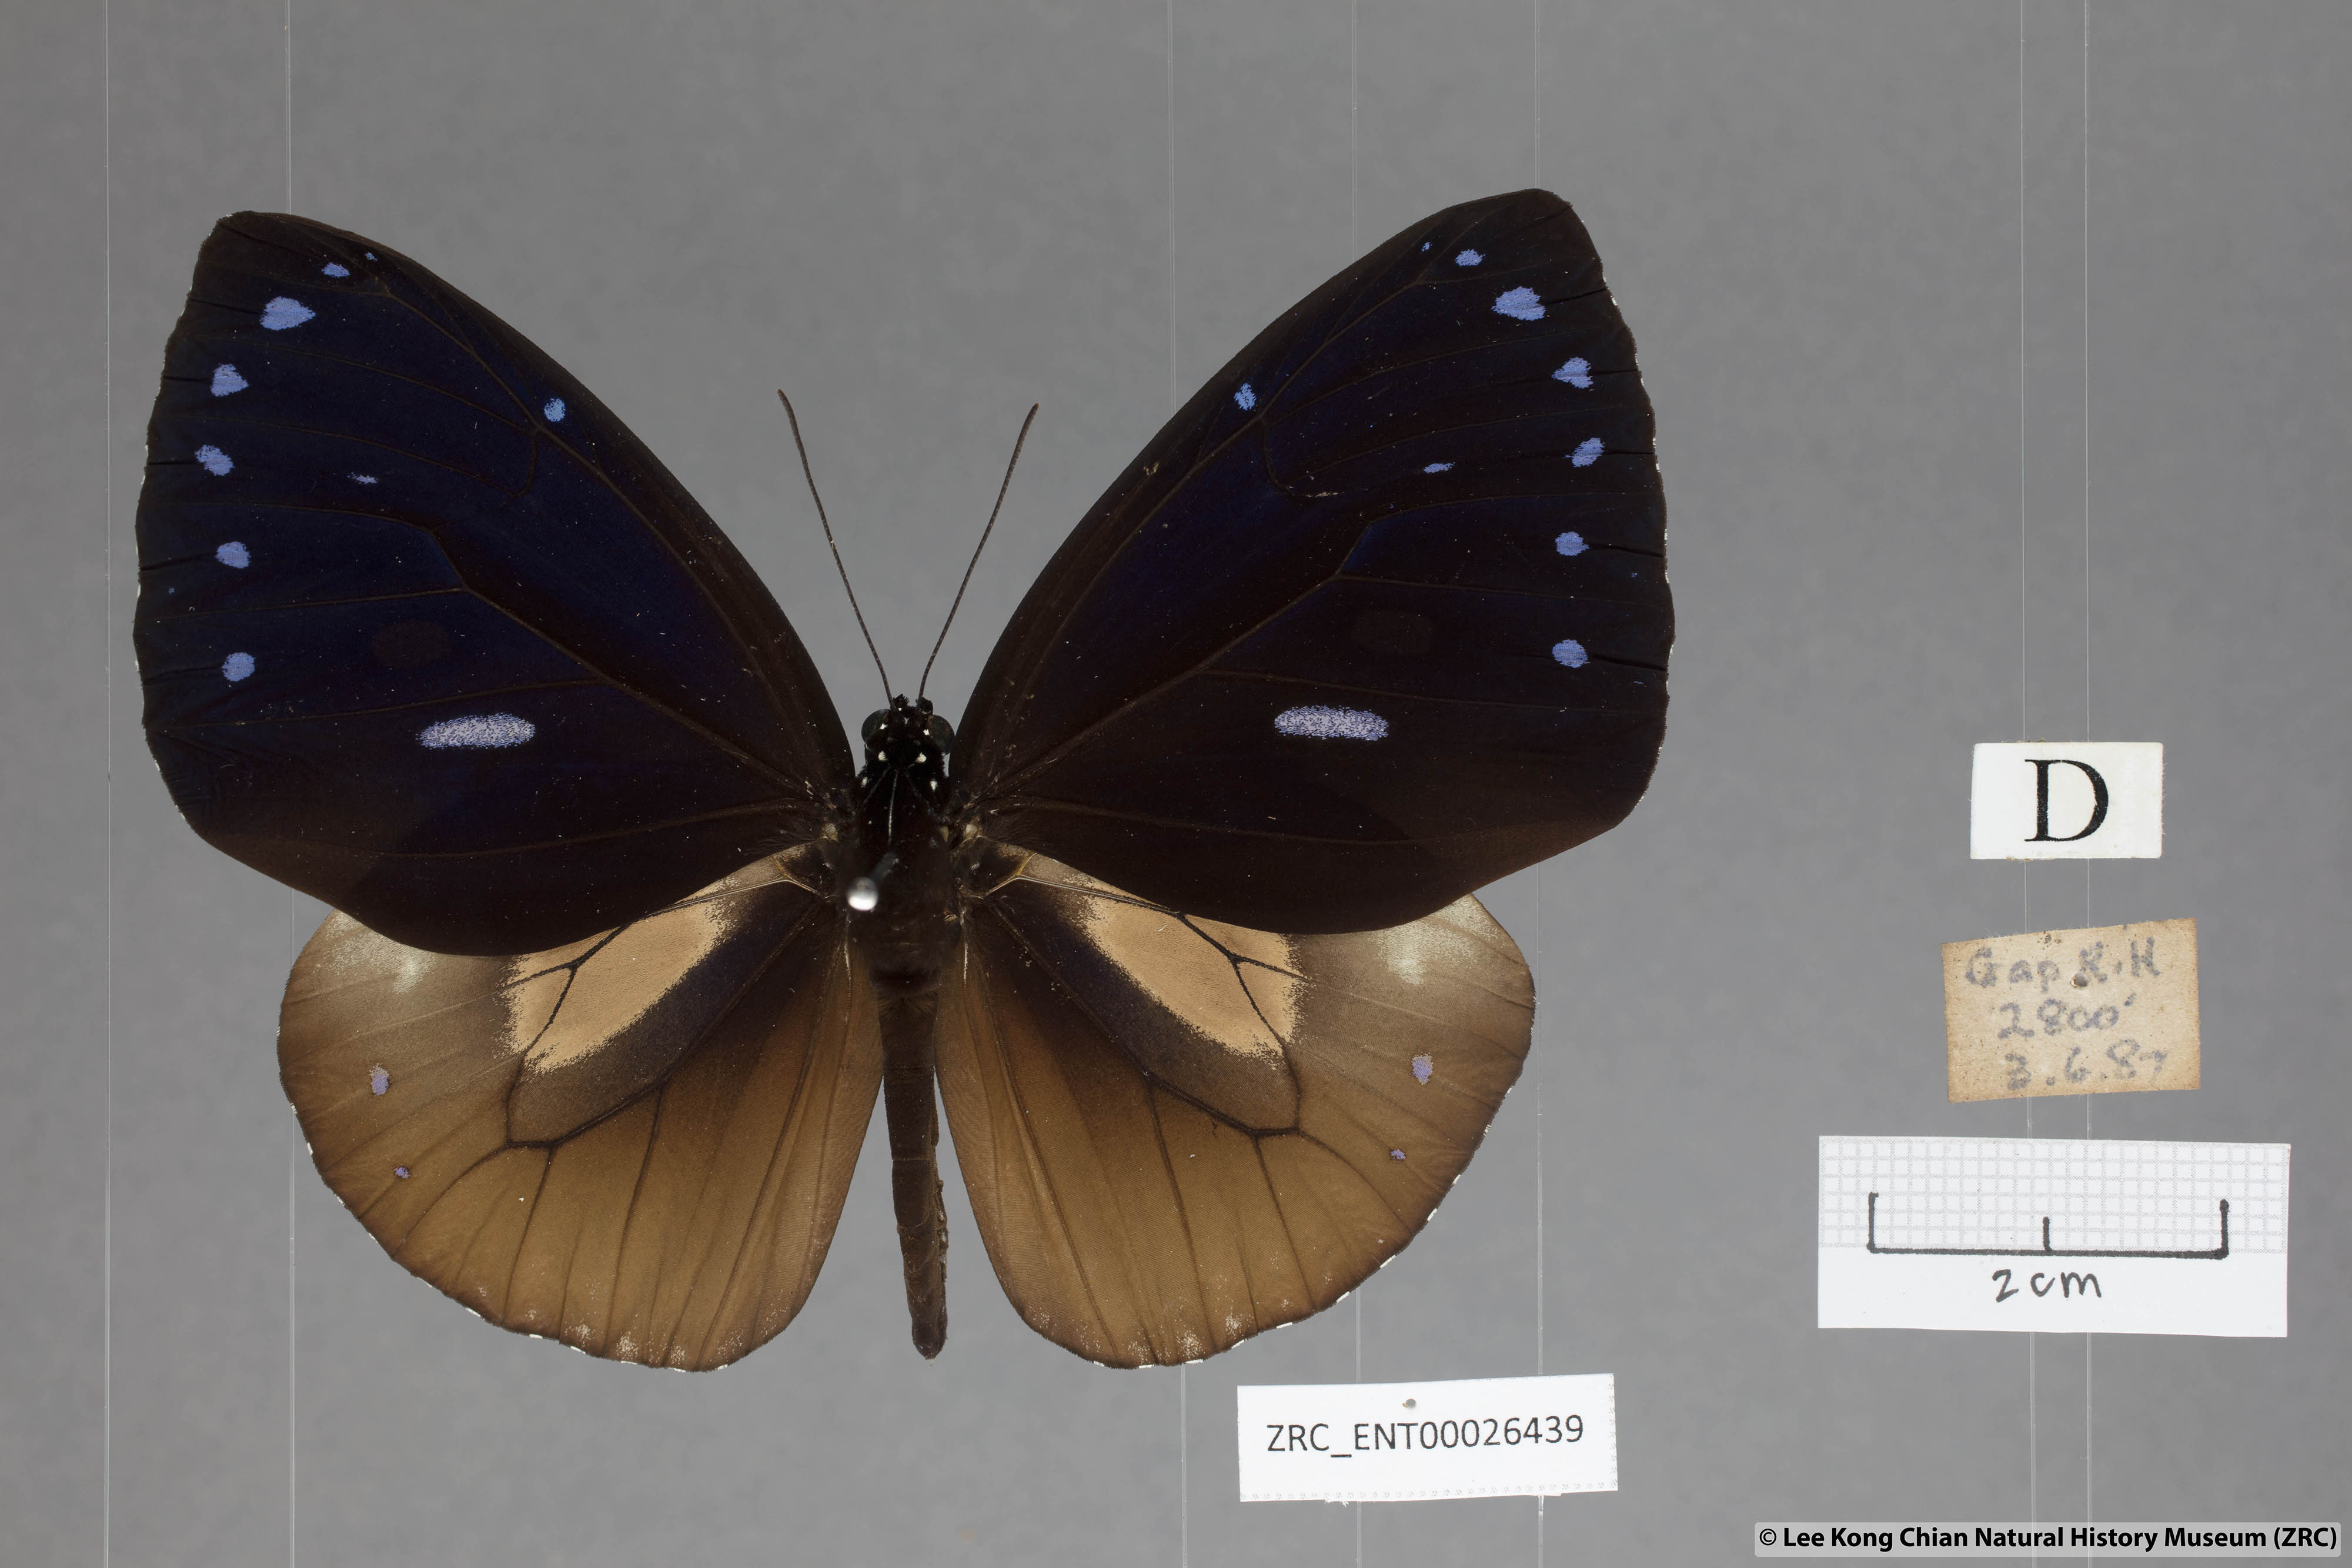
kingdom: Animalia
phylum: Arthropoda
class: Insecta
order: Lepidoptera
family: Nymphalidae
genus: Euploea
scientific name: Euploea eunice
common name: Blue-banded king crow butterfly
